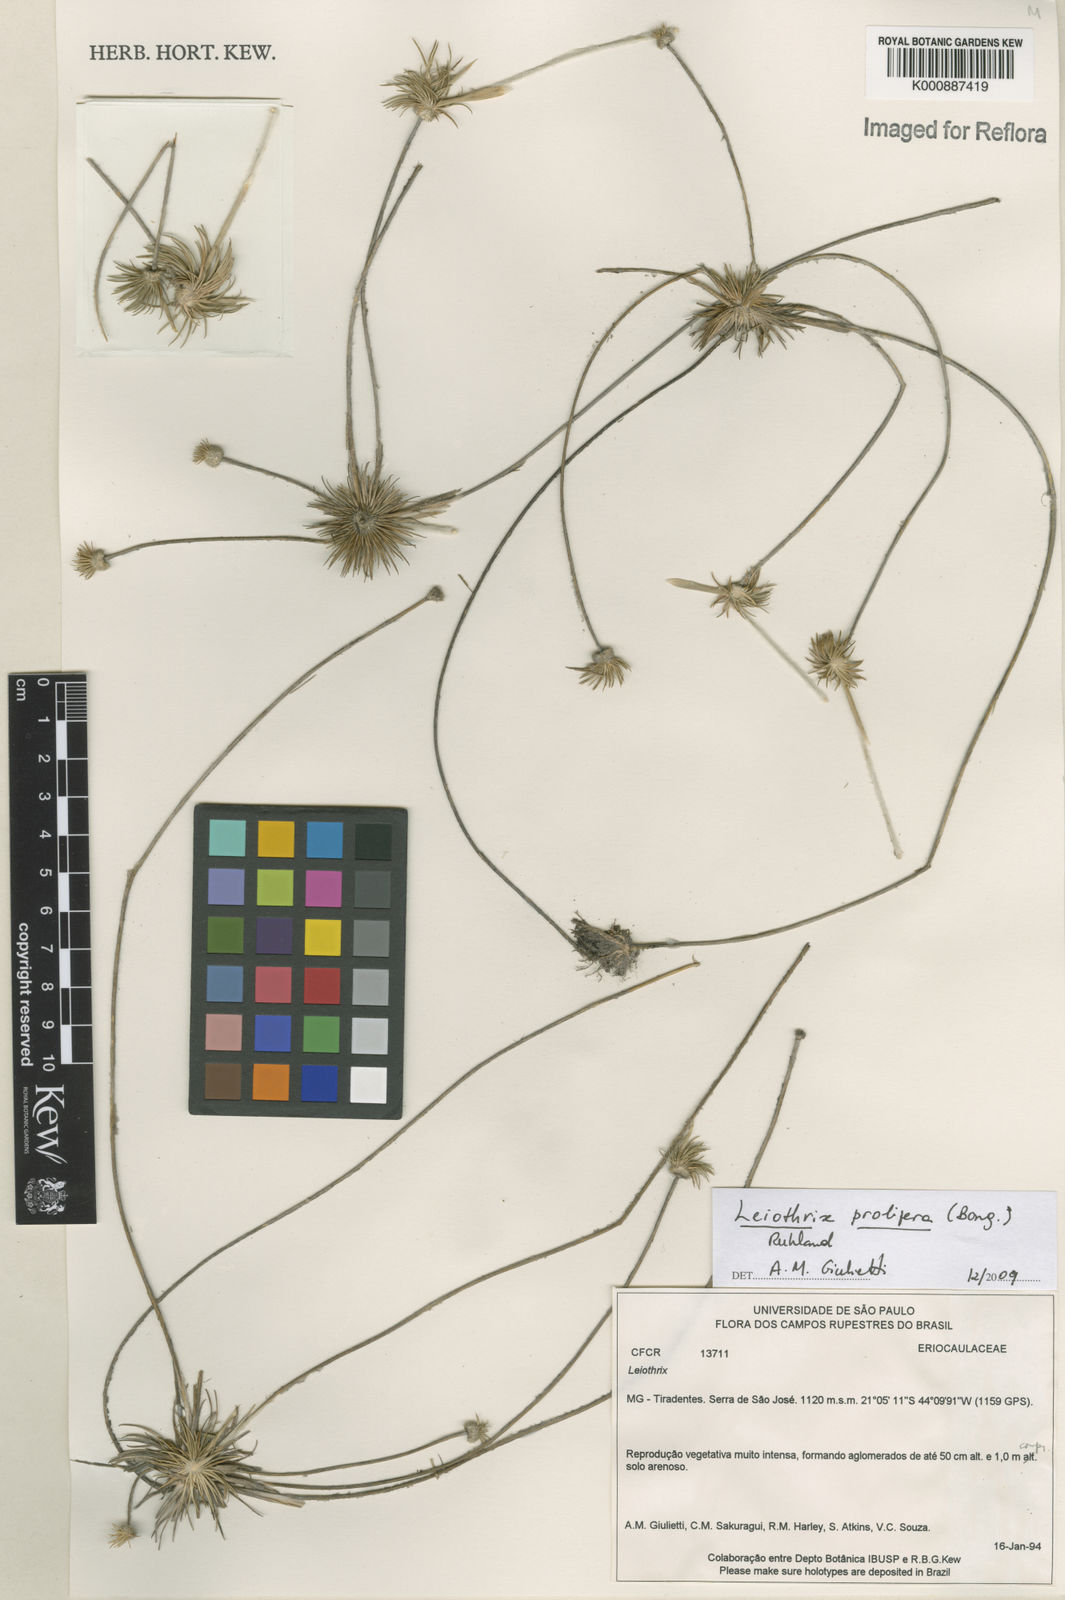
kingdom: Plantae
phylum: Tracheophyta
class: Liliopsida
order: Poales
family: Eriocaulaceae
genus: Leiothrix
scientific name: Leiothrix prolifera
